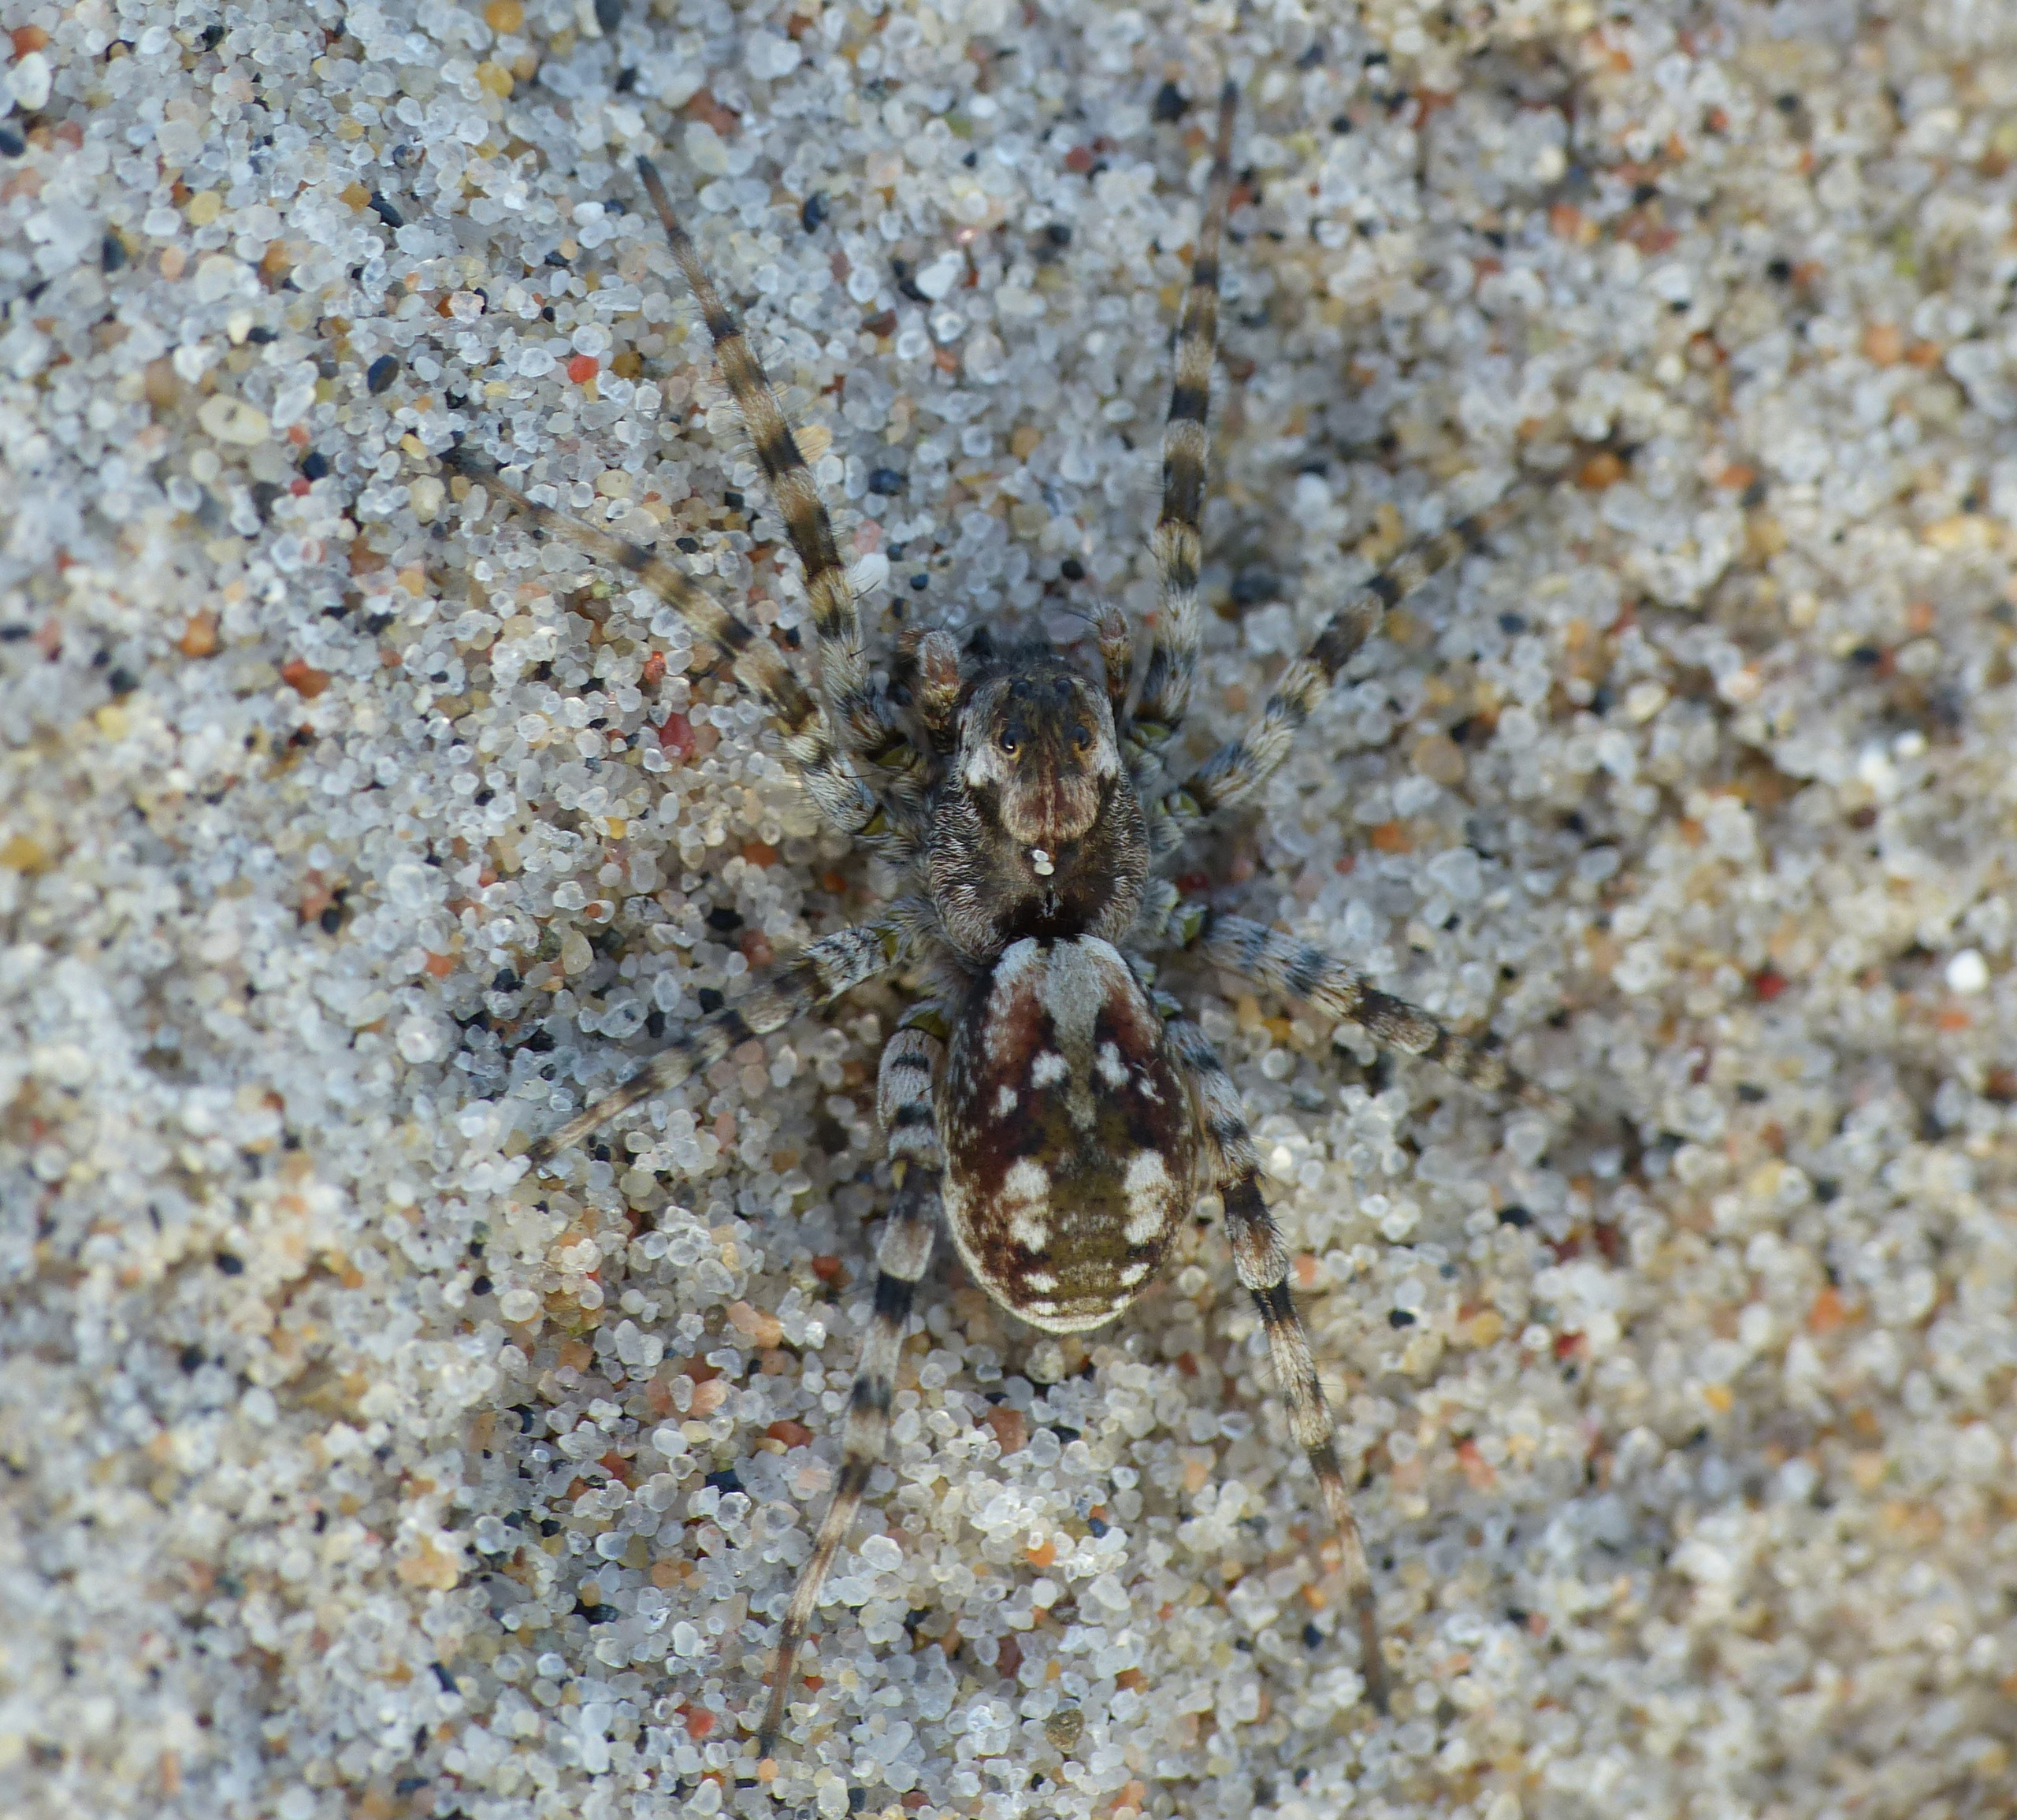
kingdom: Animalia
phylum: Arthropoda
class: Arachnida
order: Araneae
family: Lycosidae
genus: Arctosa
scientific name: Arctosa perita
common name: Klitgraveedderkop
